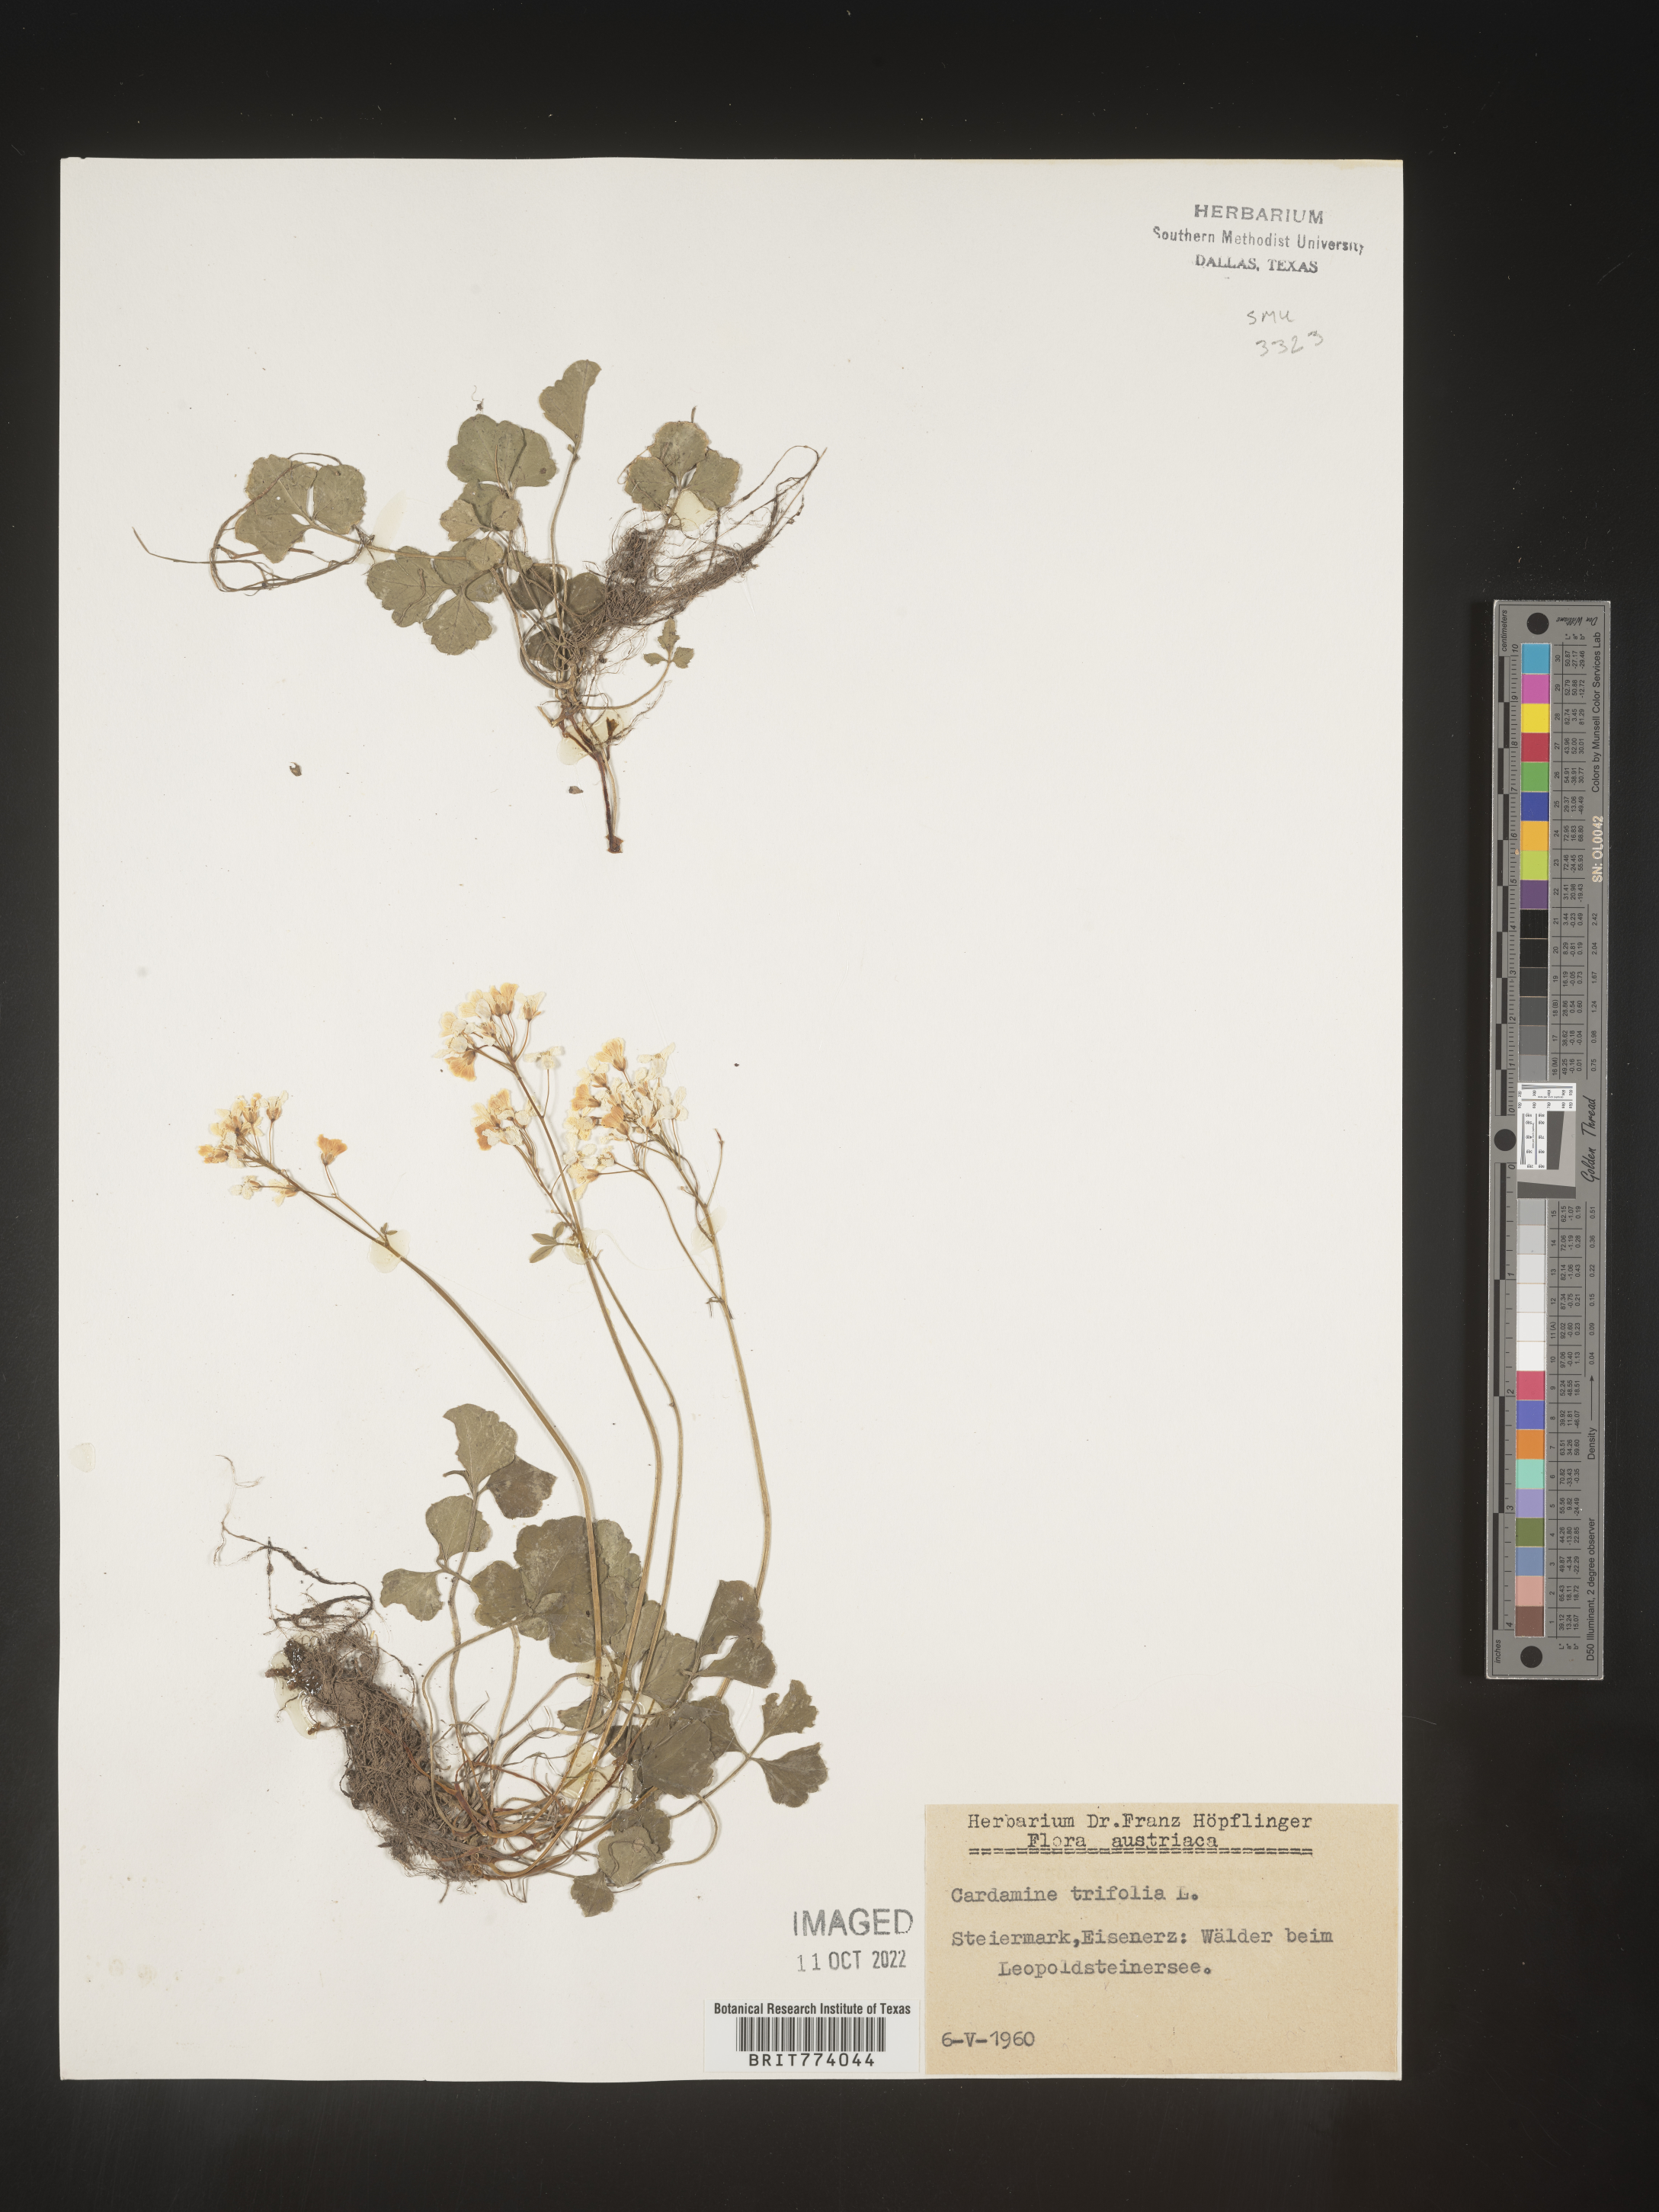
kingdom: Plantae
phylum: Tracheophyta
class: Magnoliopsida
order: Brassicales
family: Brassicaceae
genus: Cardamine
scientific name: Cardamine
